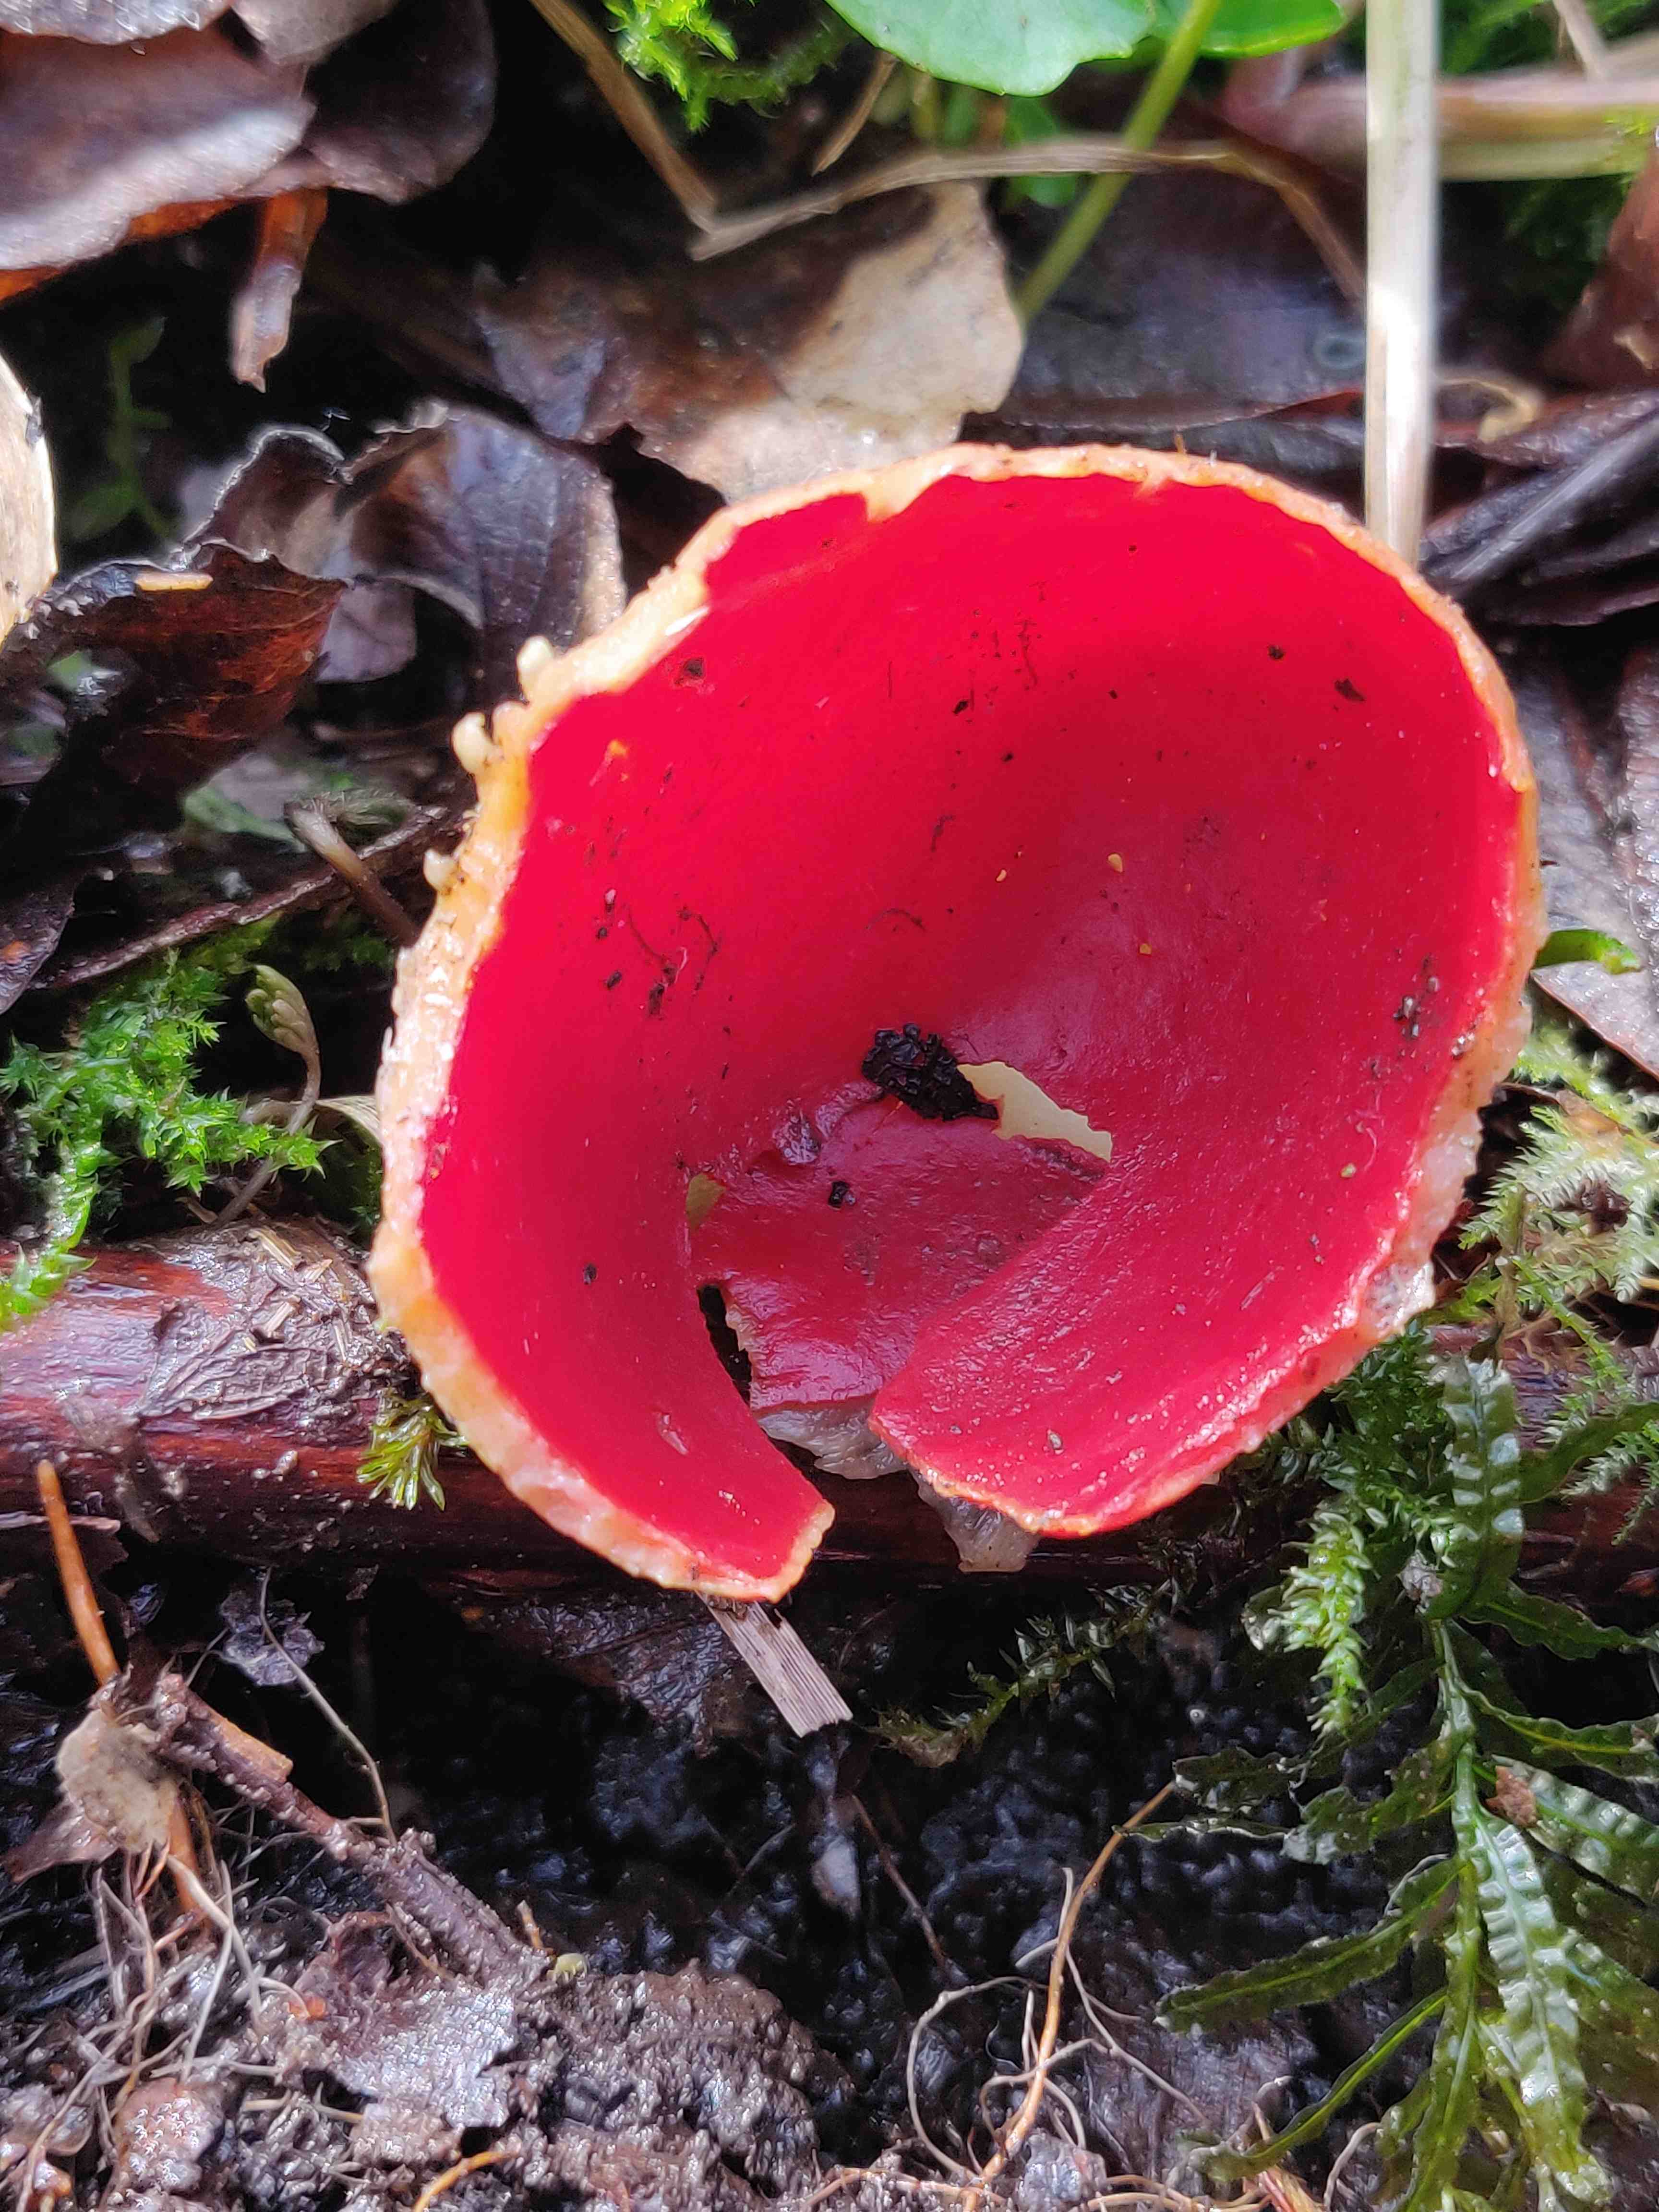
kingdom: Fungi
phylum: Ascomycota
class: Pezizomycetes
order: Pezizales
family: Sarcoscyphaceae
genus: Sarcoscypha
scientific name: Sarcoscypha austriaca
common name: krølhåret pragtbæger
